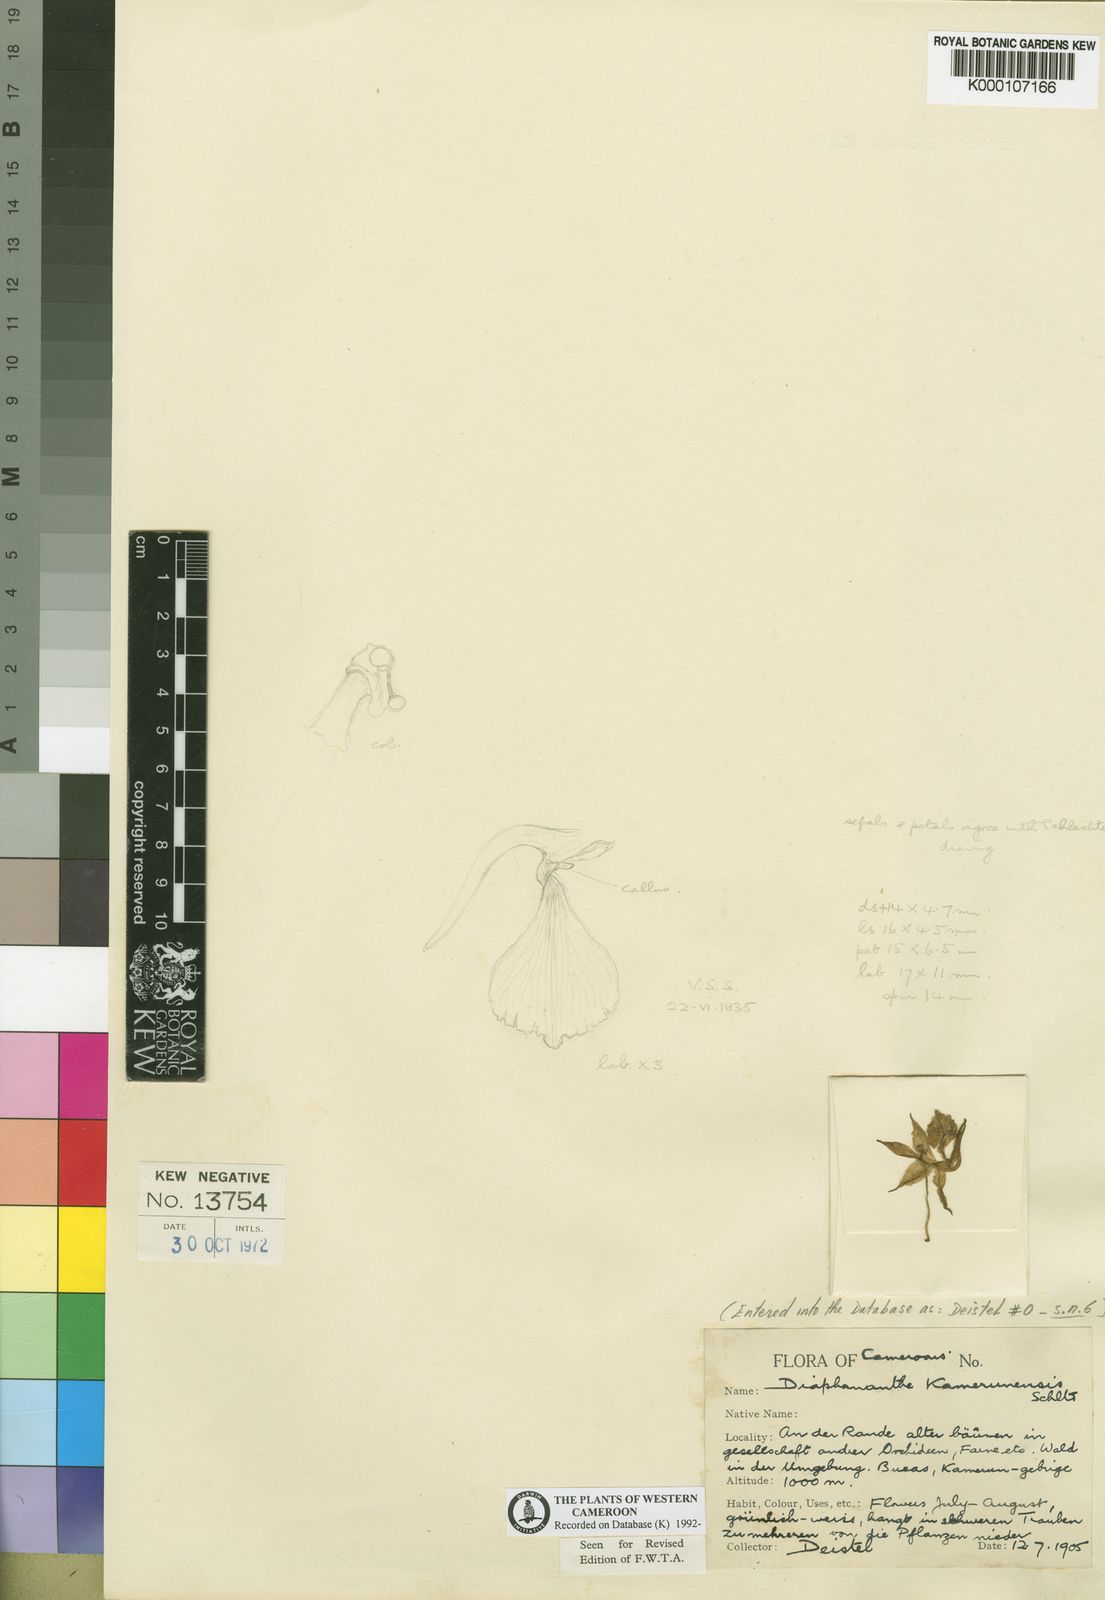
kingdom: Plantae
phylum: Tracheophyta
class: Liliopsida
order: Asparagales
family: Orchidaceae
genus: Rhipidoglossum
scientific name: Rhipidoglossum kamerunense
